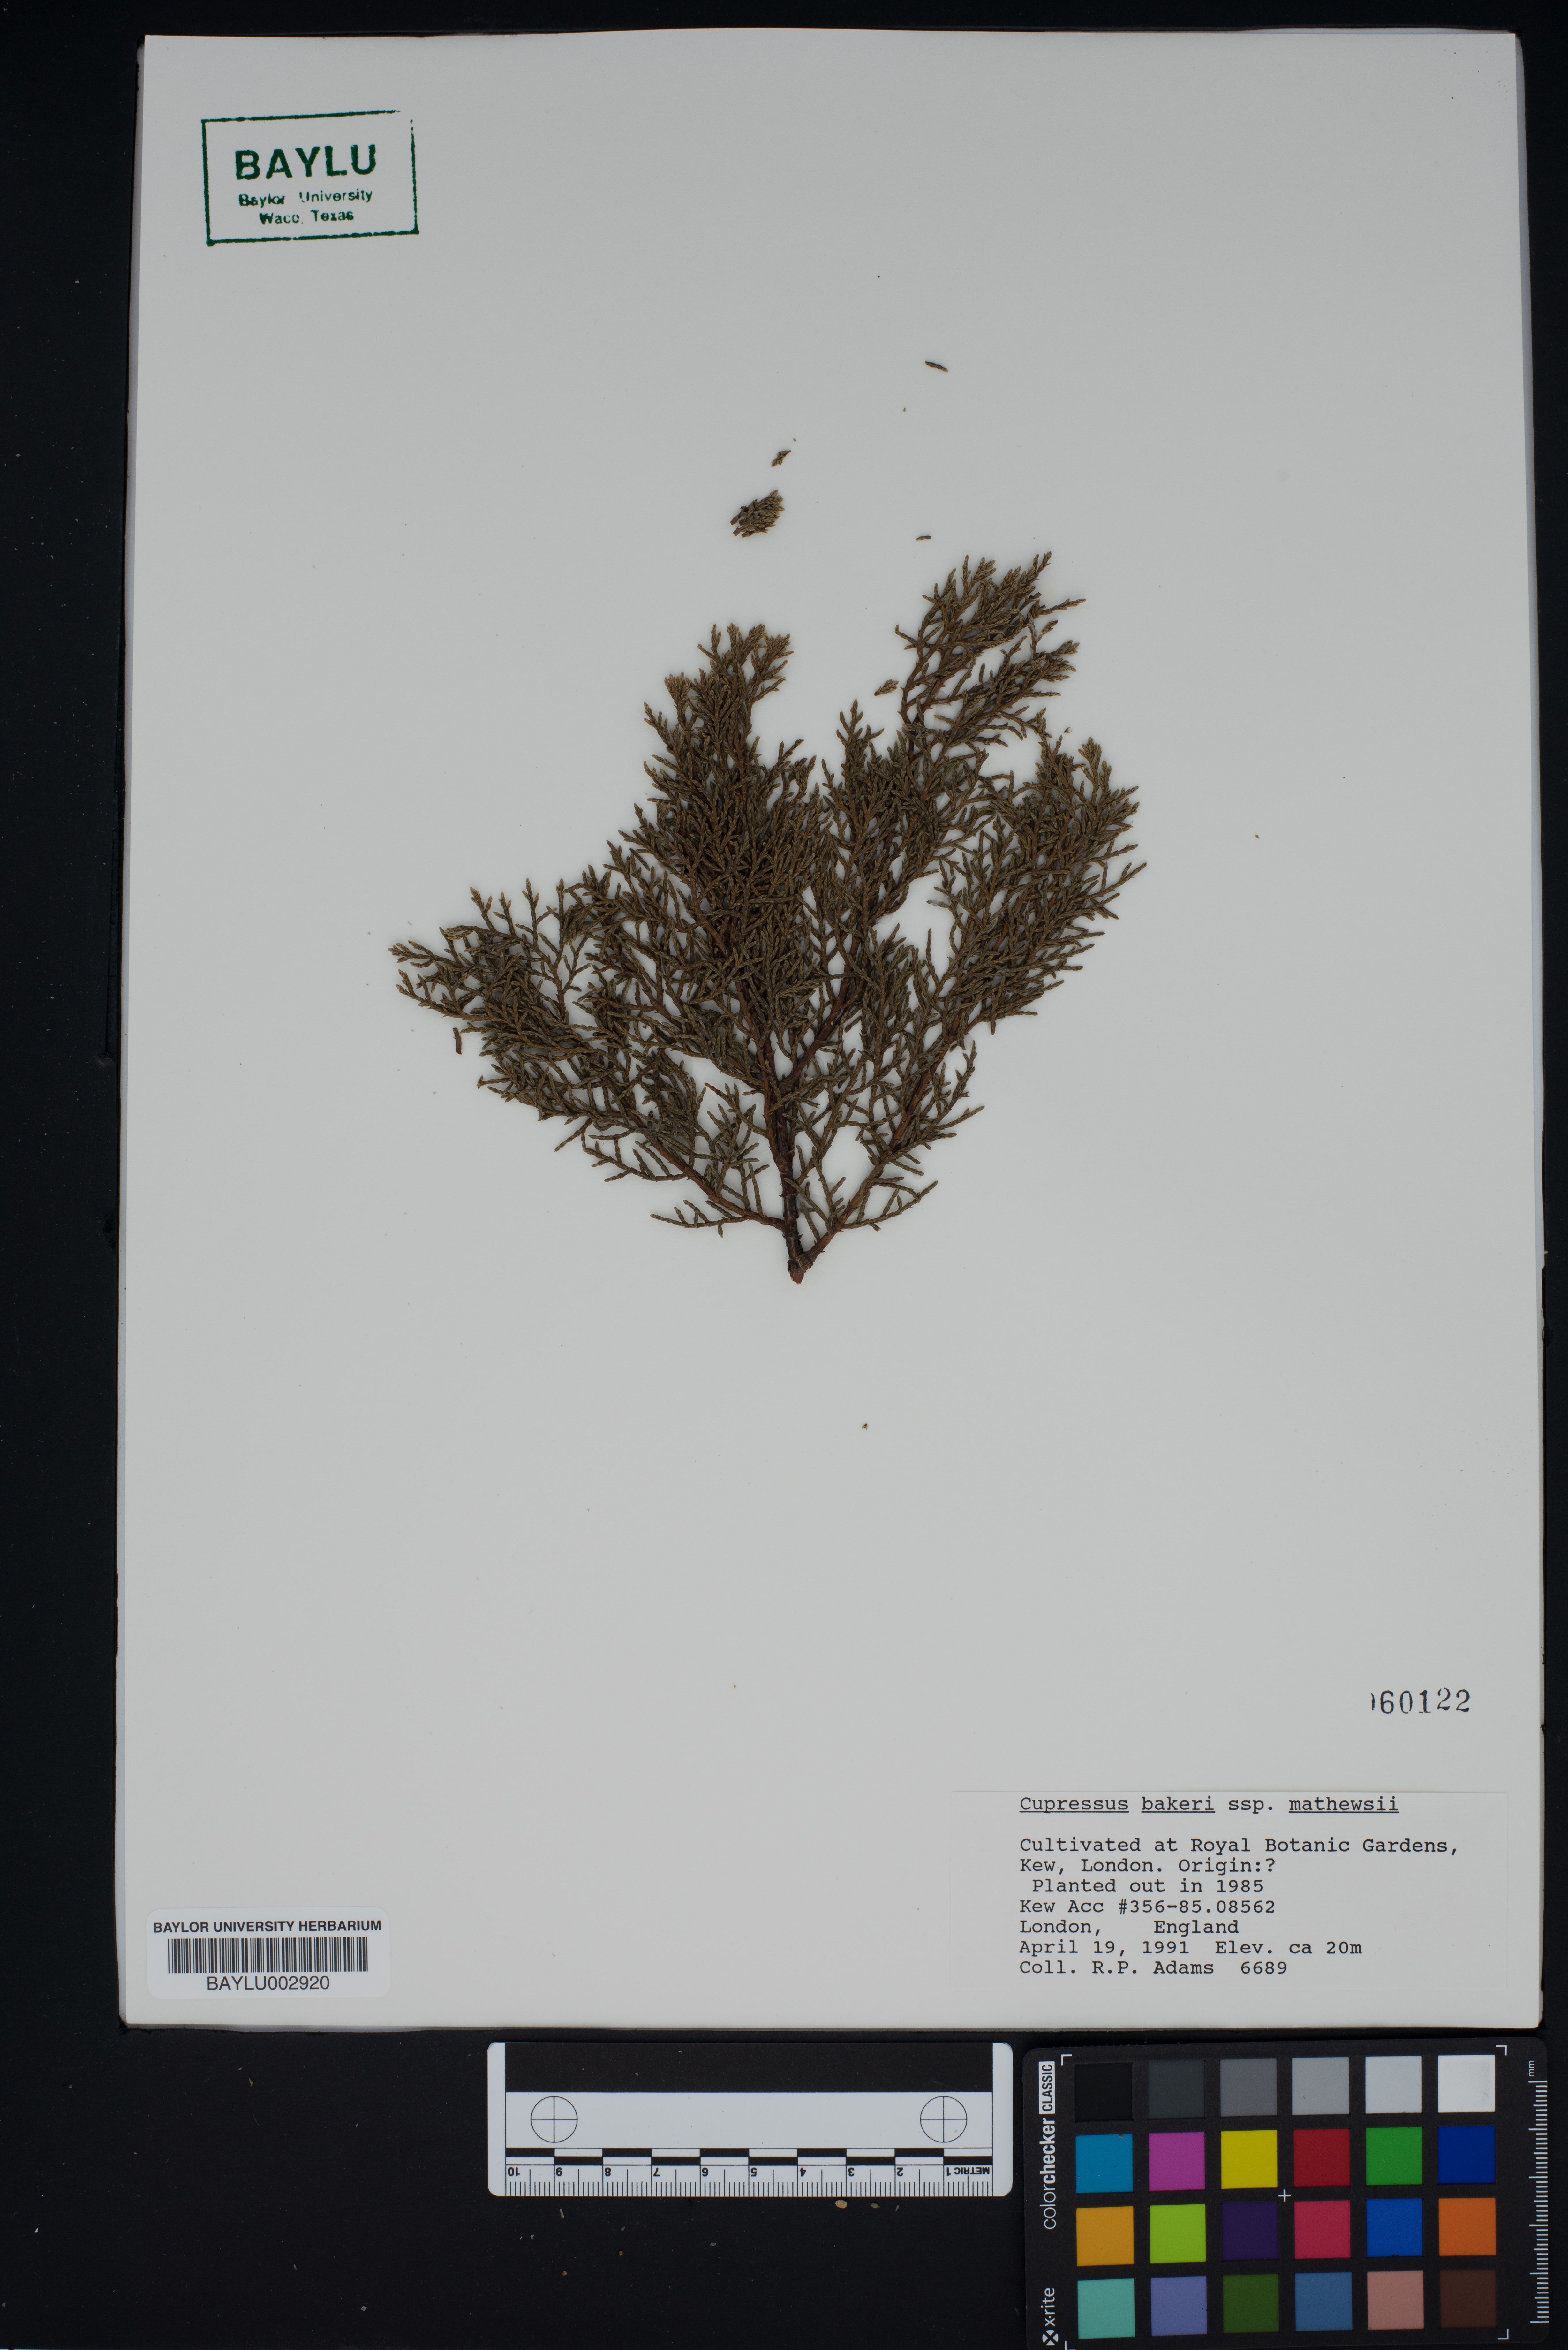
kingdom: Plantae
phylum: Tracheophyta
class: Pinopsida
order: Pinales
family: Cupressaceae
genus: Cupressus
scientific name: Cupressus bakeri
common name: Baker cypress
